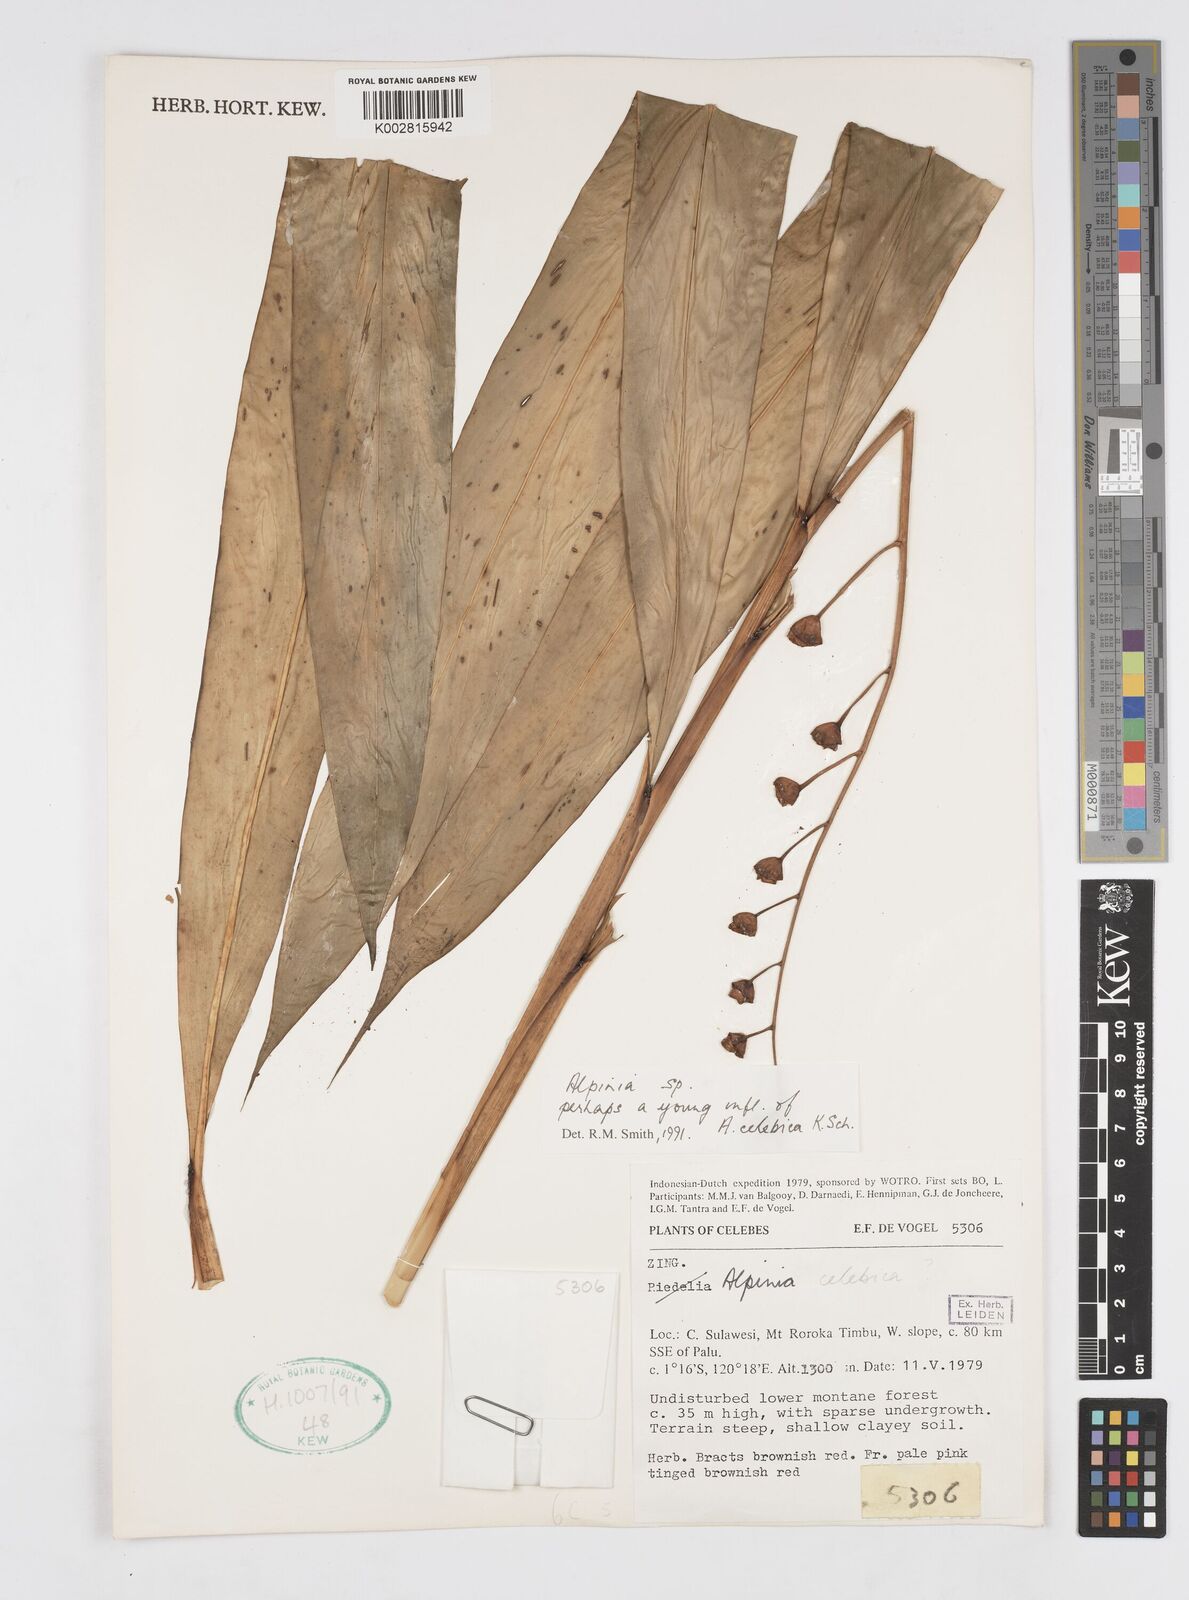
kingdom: Plantae
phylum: Tracheophyta
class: Liliopsida
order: Zingiberales
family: Zingiberaceae
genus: Alpinia
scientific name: Alpinia celebica
